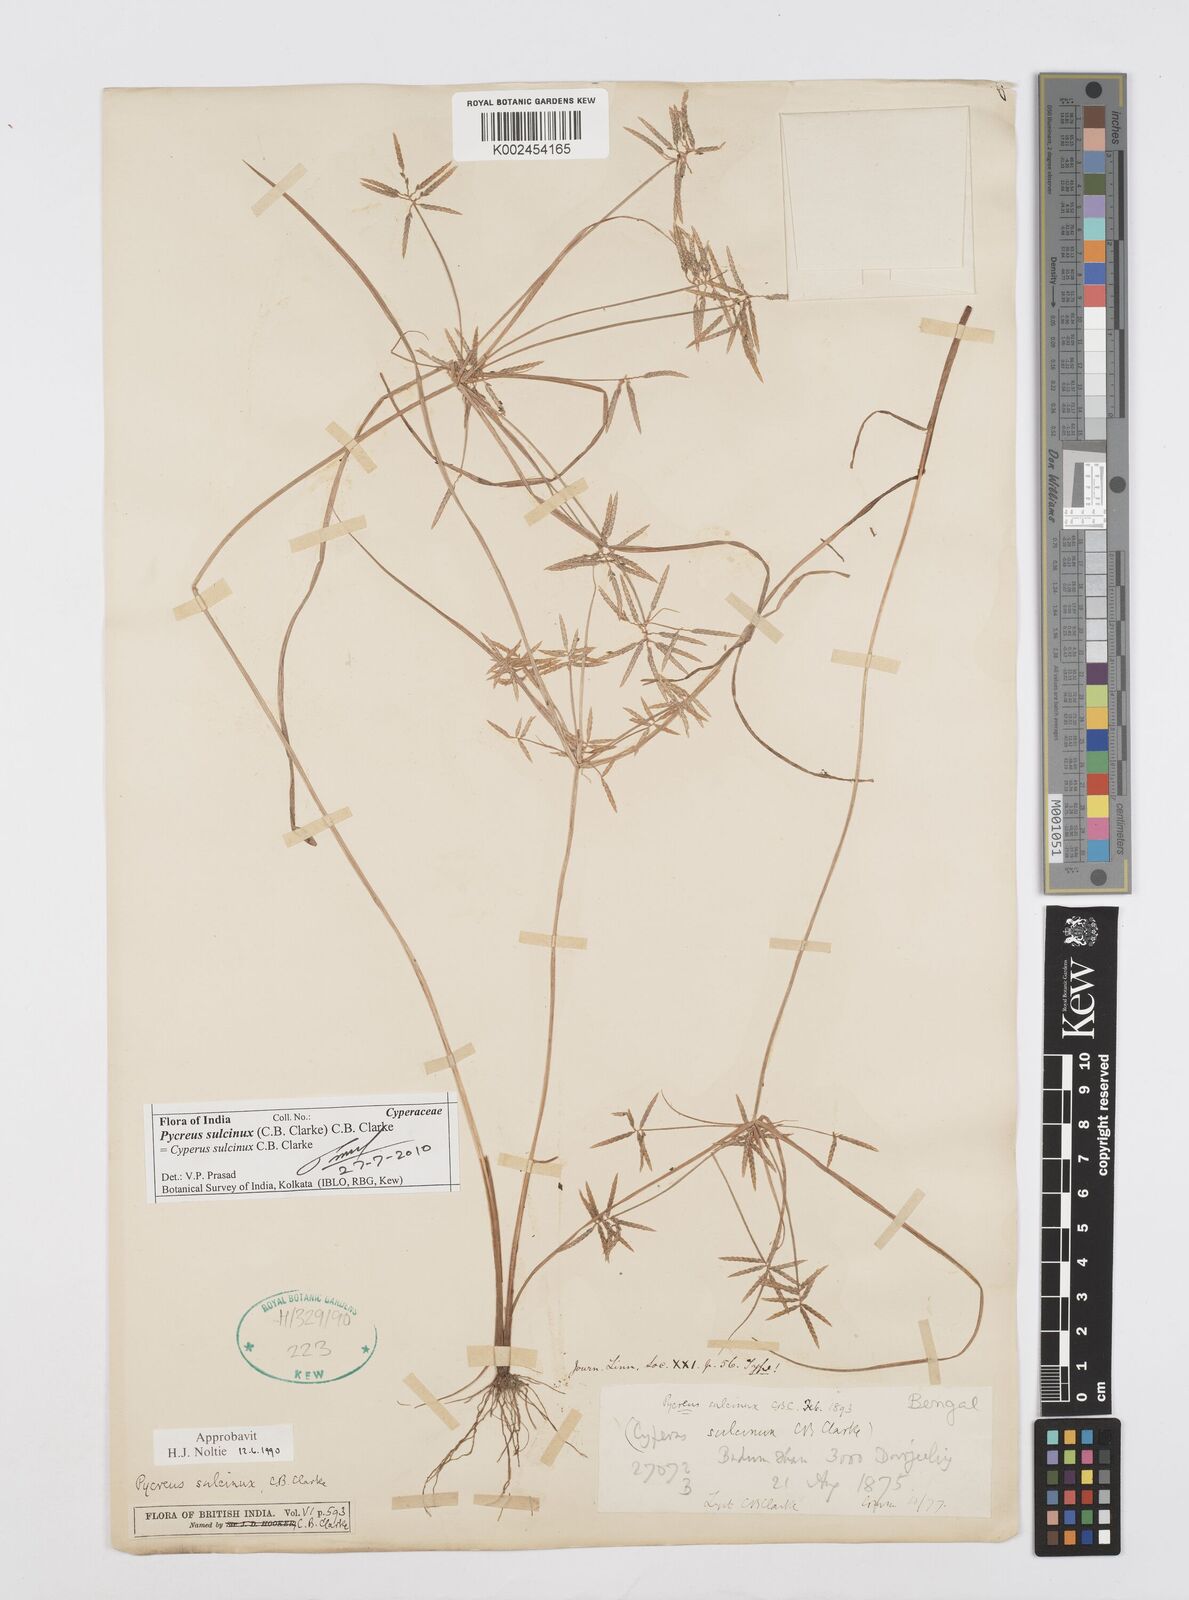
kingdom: Plantae
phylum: Tracheophyta
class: Liliopsida
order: Poales
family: Cyperaceae
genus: Cyperus
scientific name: Cyperus sulcinux
